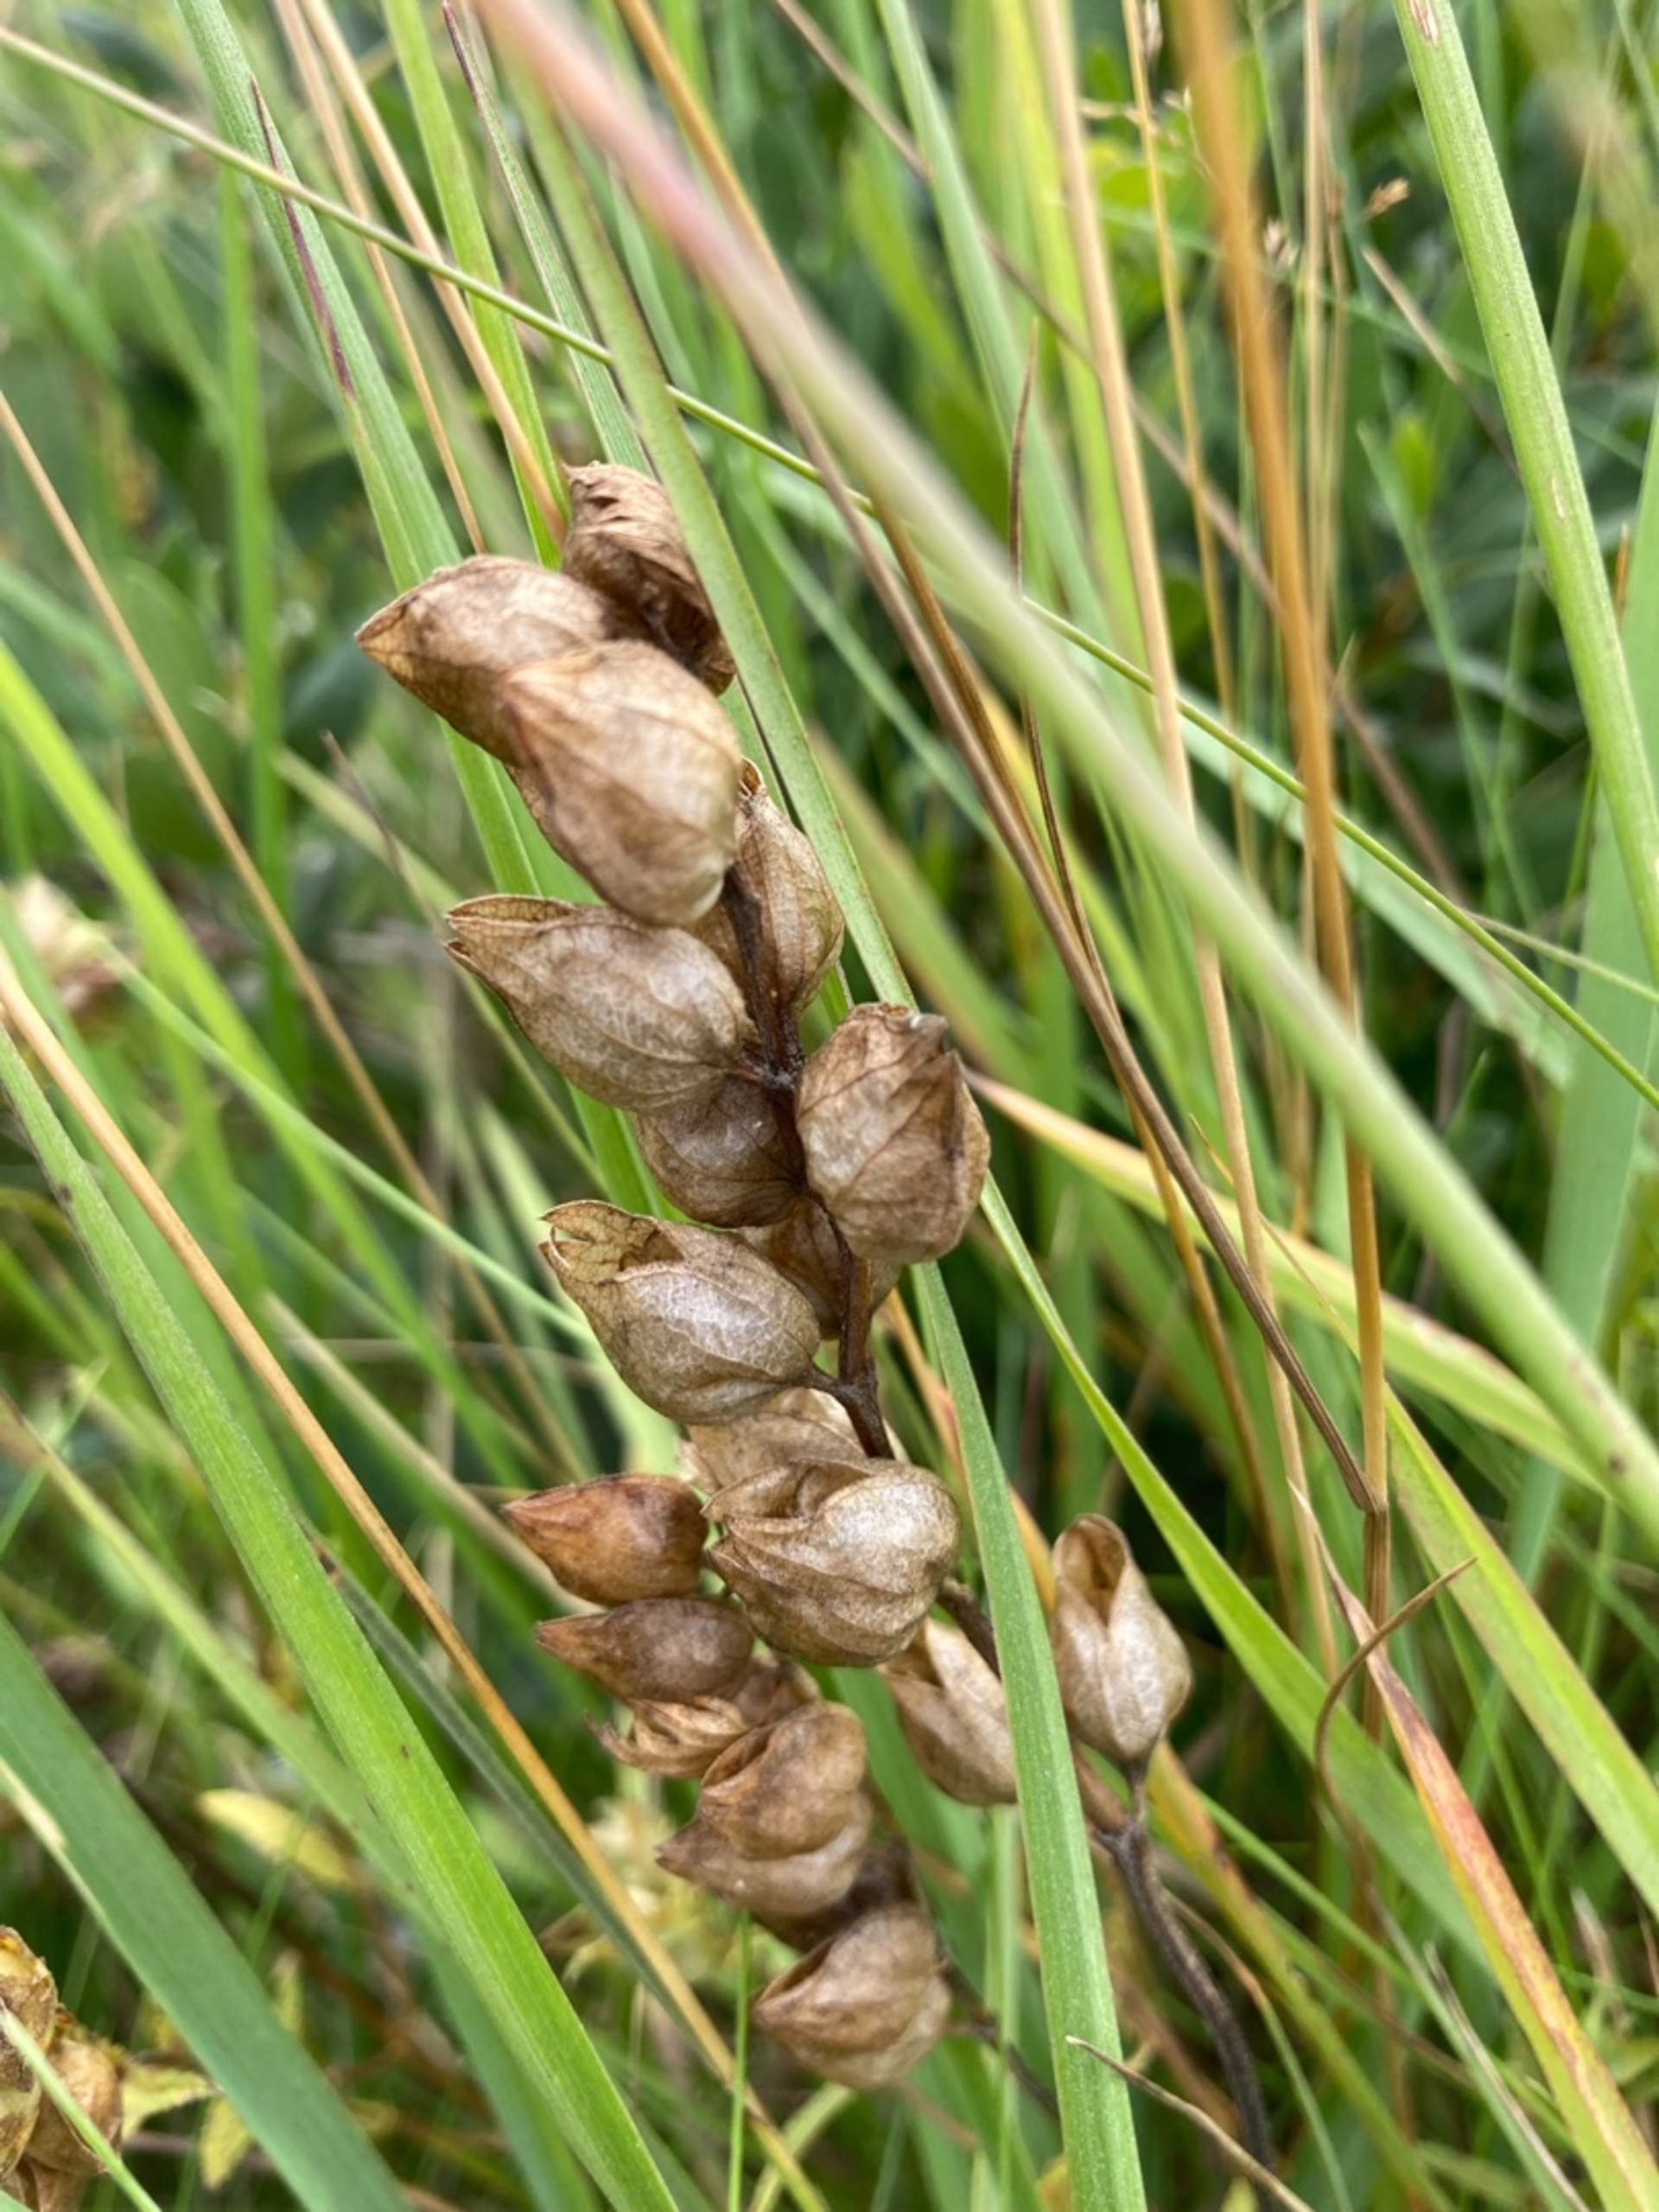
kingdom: Plantae
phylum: Tracheophyta
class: Magnoliopsida
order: Lamiales
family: Orobanchaceae
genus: Rhinanthus
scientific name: Rhinanthus
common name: Skjallerslægten
